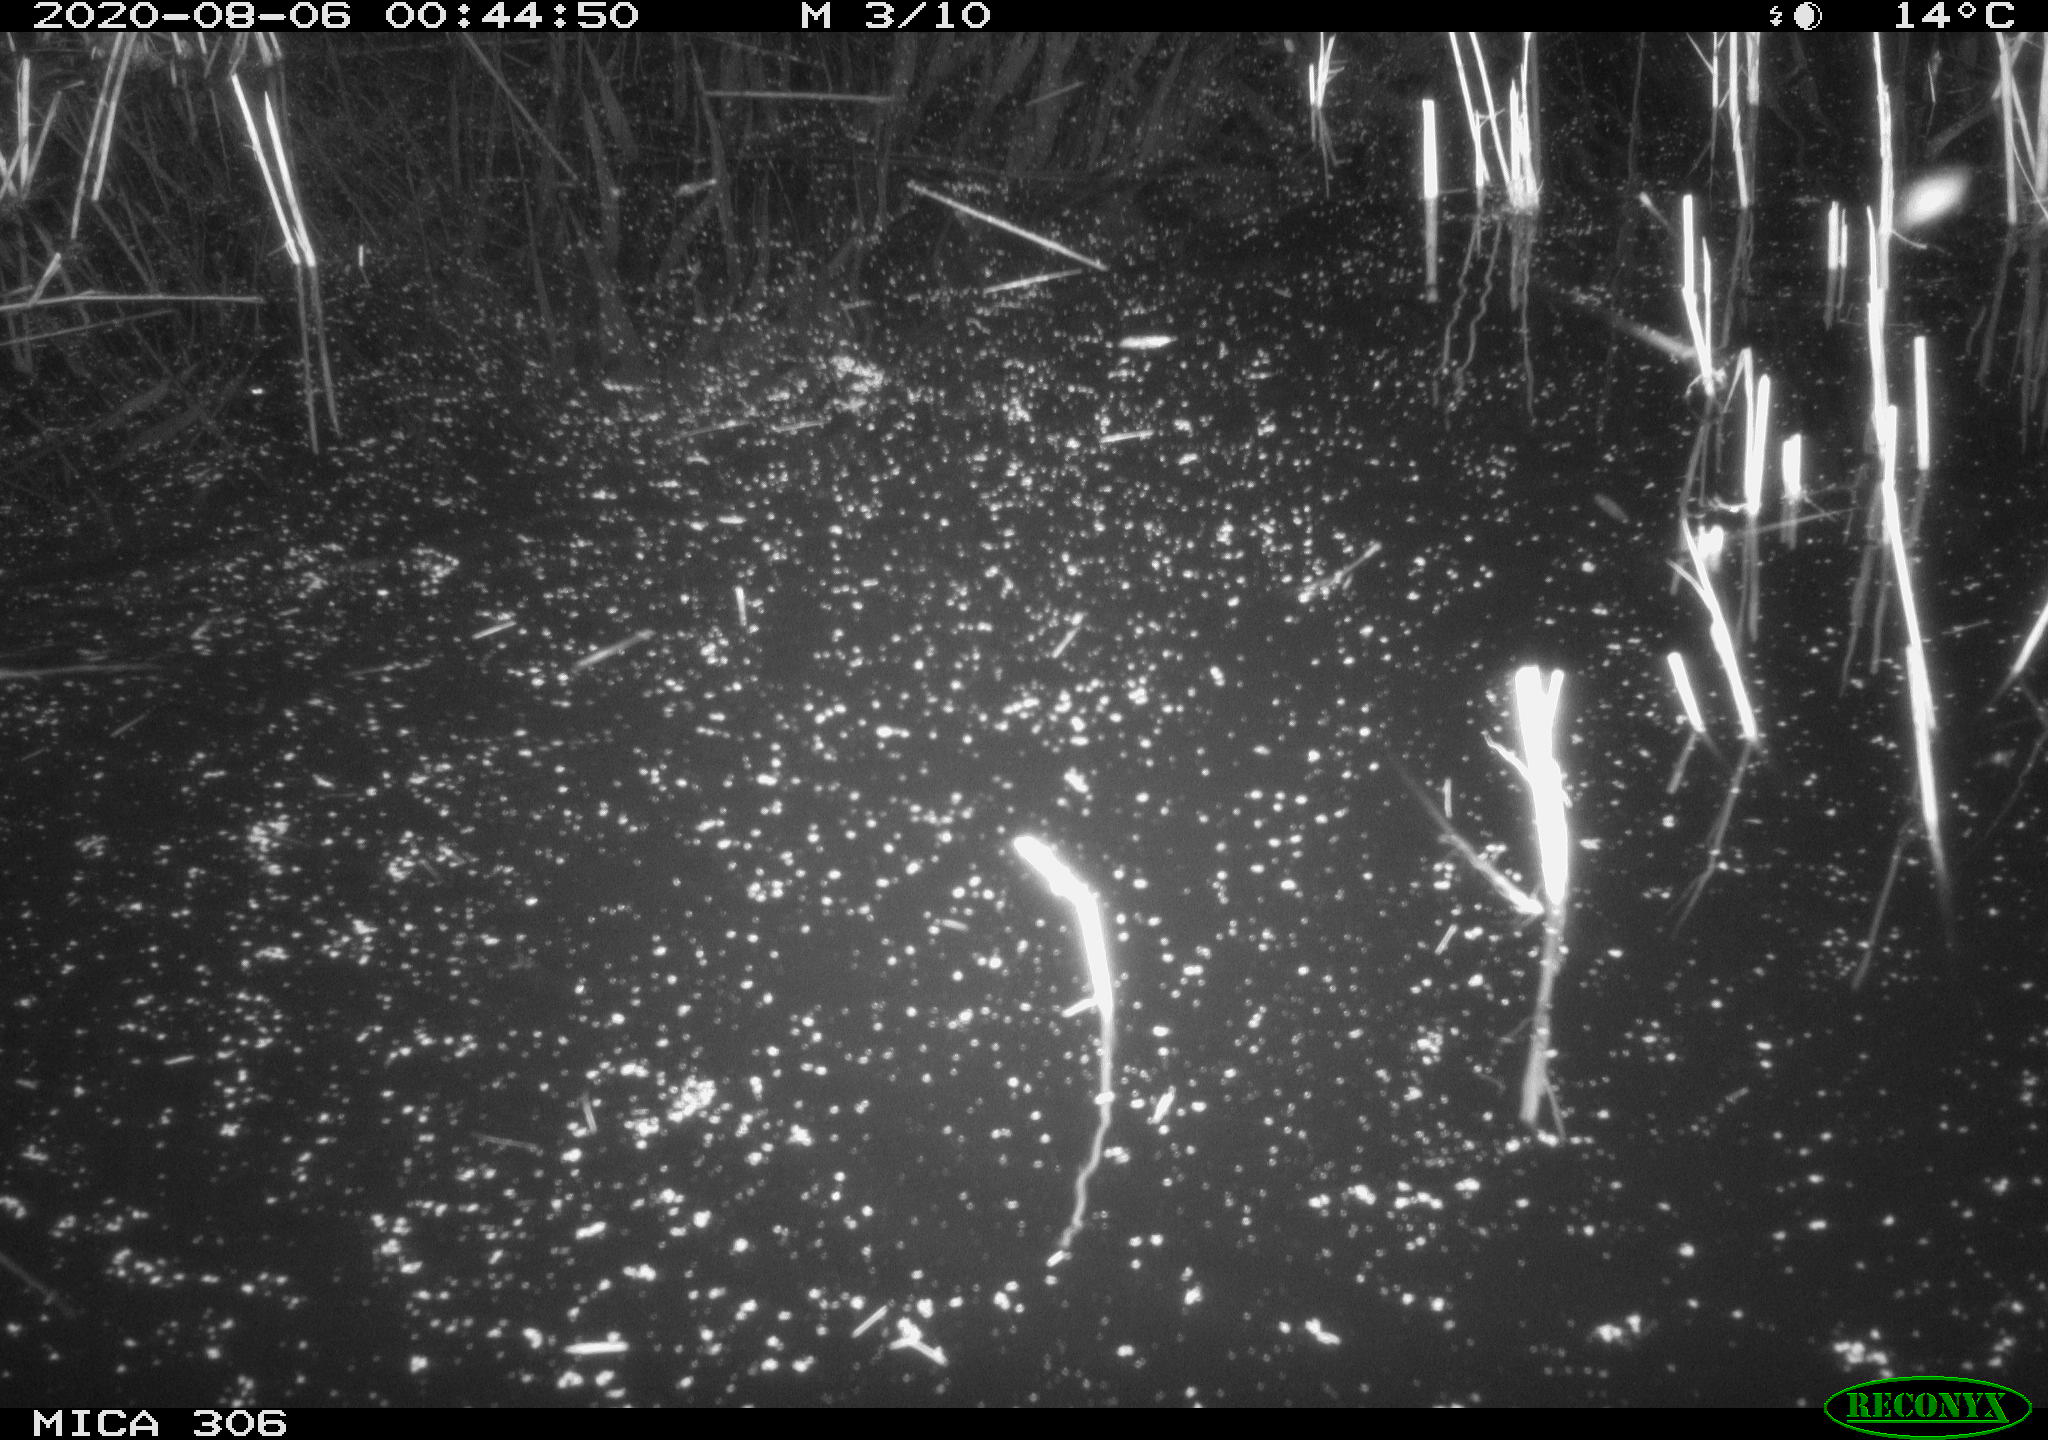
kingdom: Animalia
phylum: Chordata
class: Mammalia
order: Rodentia
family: Muridae
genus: Rattus
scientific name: Rattus norvegicus
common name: Brown rat
